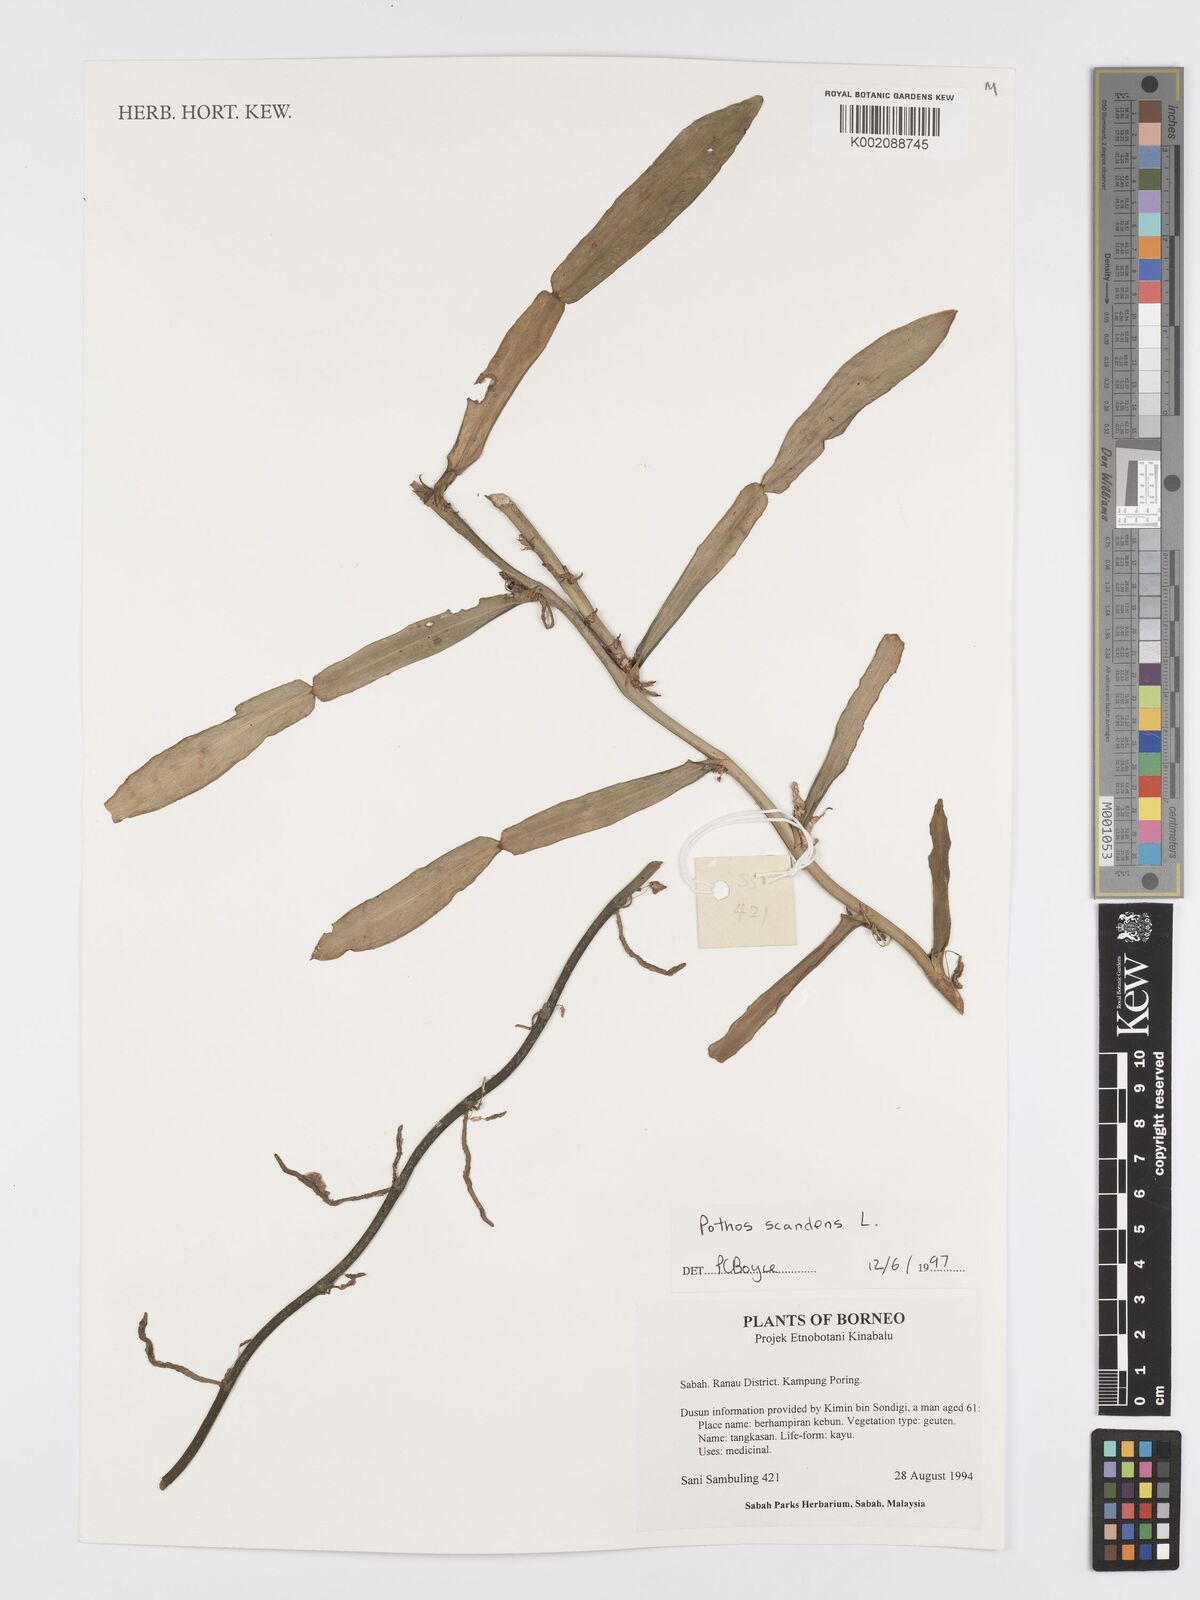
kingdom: Plantae
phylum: Tracheophyta
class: Liliopsida
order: Alismatales
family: Araceae
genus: Pothos
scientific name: Pothos scandens
